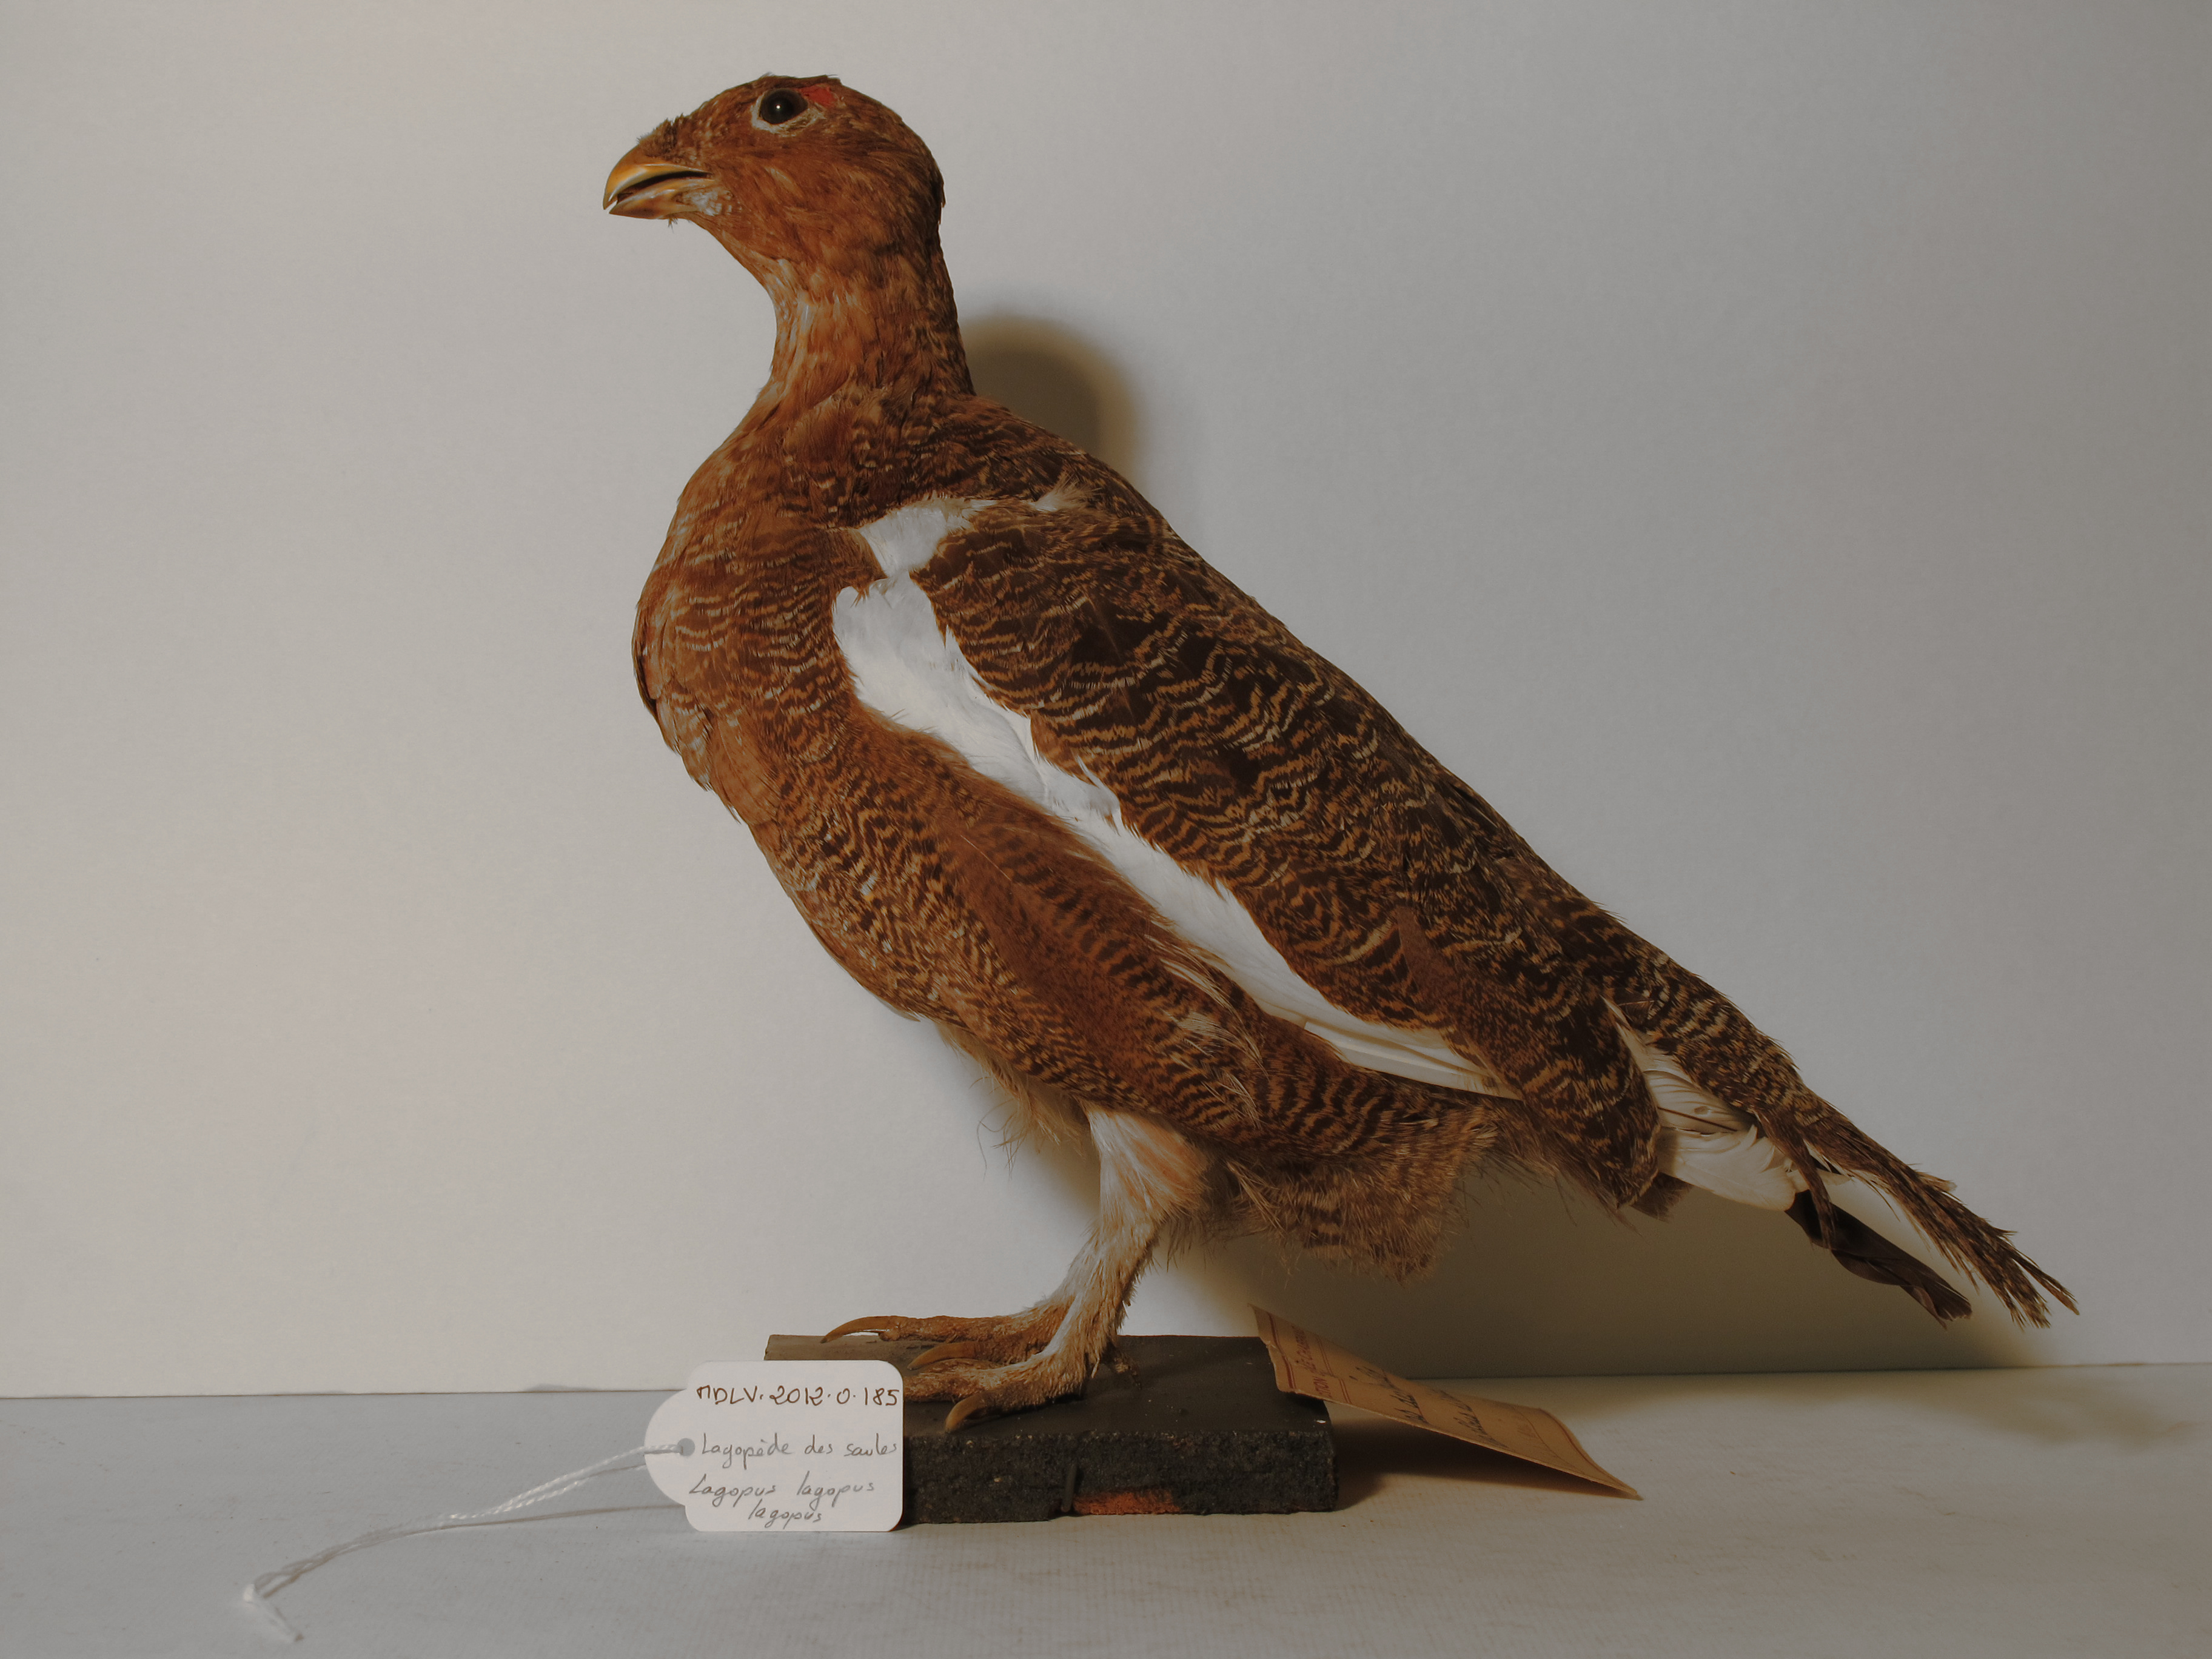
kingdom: Animalia
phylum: Chordata
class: Aves
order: Galliformes
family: Phasianidae
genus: Lagopus
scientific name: Lagopus lagopus
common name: Willow Grouse
